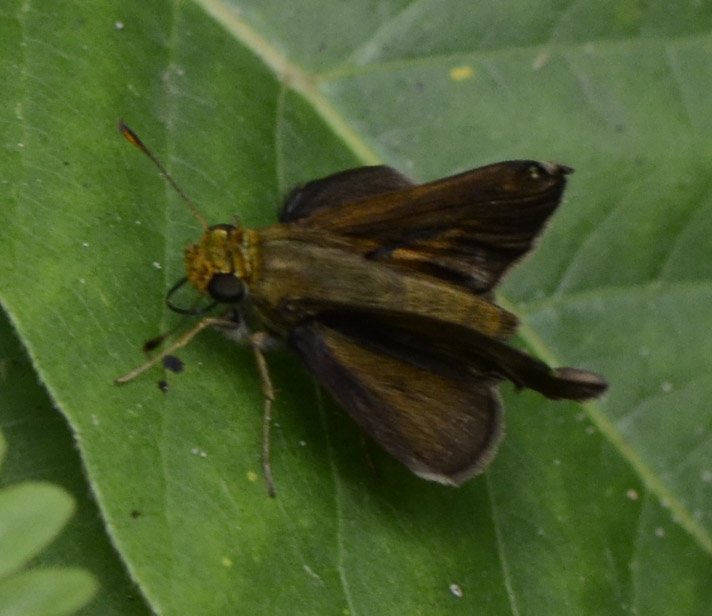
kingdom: Animalia
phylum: Arthropoda
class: Insecta
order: Lepidoptera
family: Hesperiidae
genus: Euphyes
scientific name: Euphyes vestris
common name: Dun Skipper
